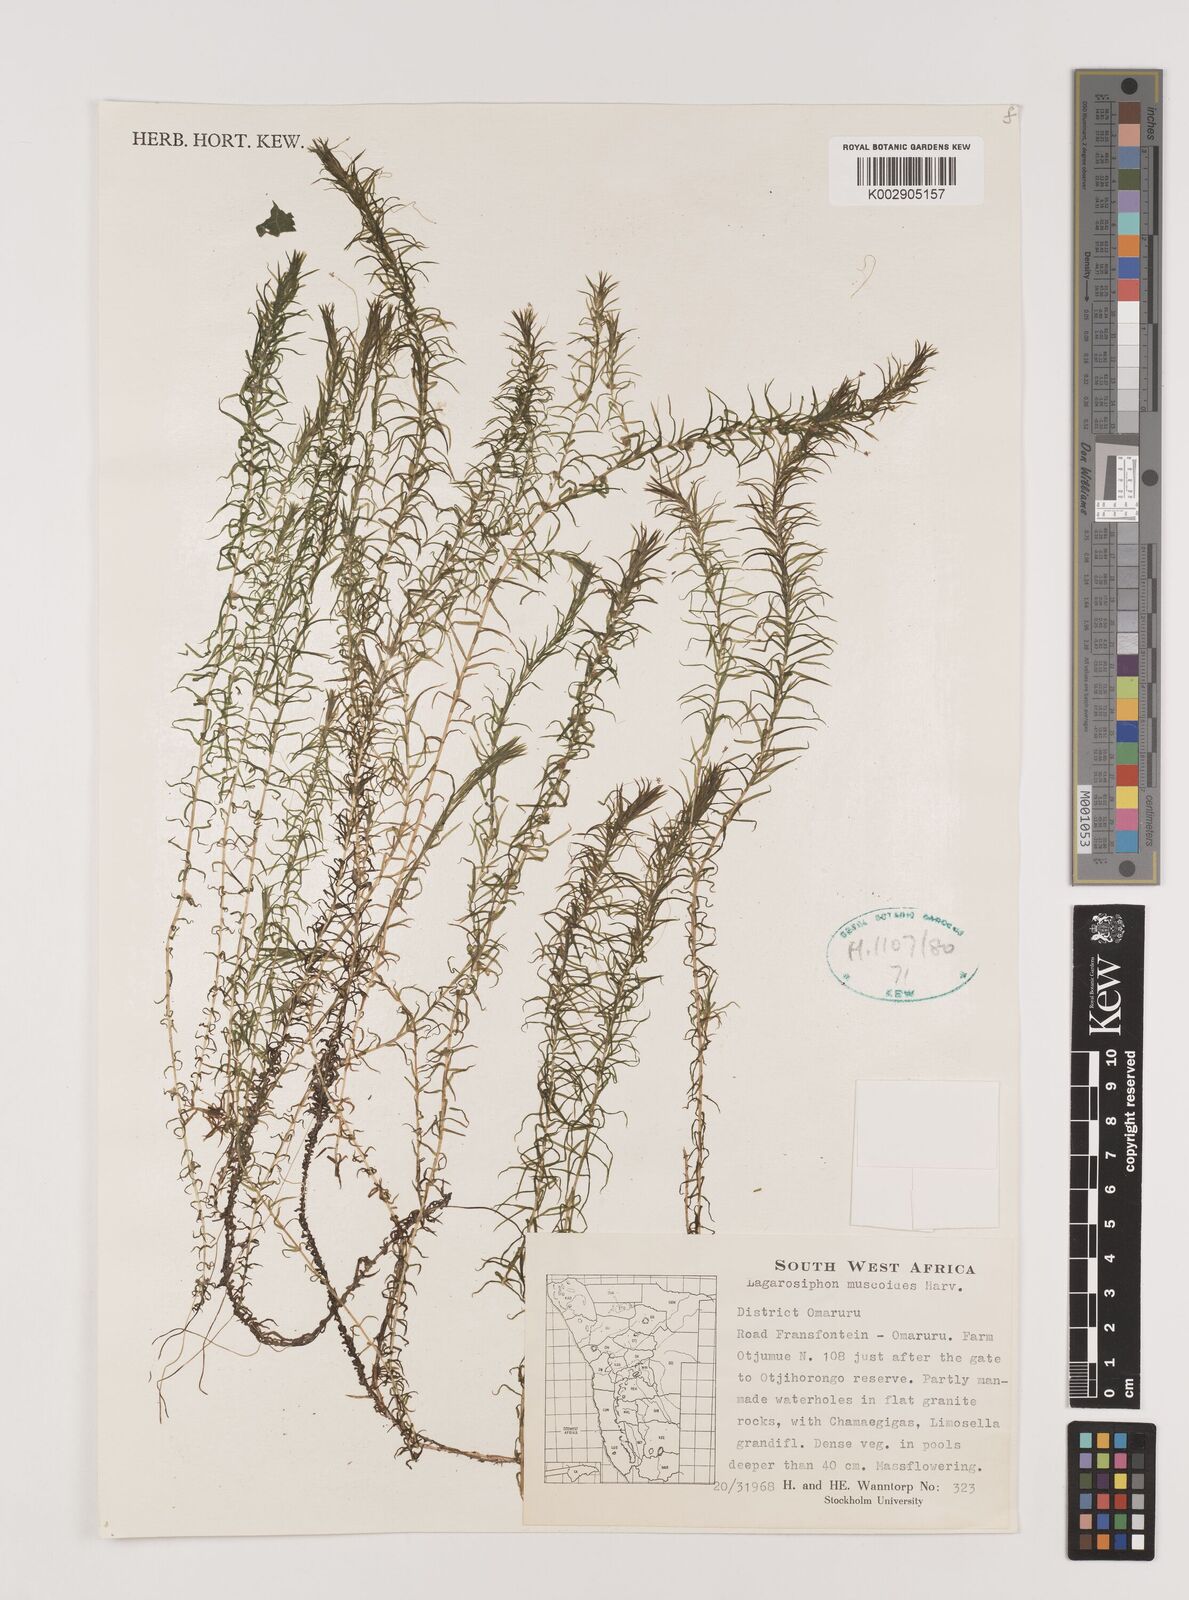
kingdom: Plantae
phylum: Tracheophyta
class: Liliopsida
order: Alismatales
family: Hydrocharitaceae
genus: Lagarosiphon
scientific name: Lagarosiphon muscoides
